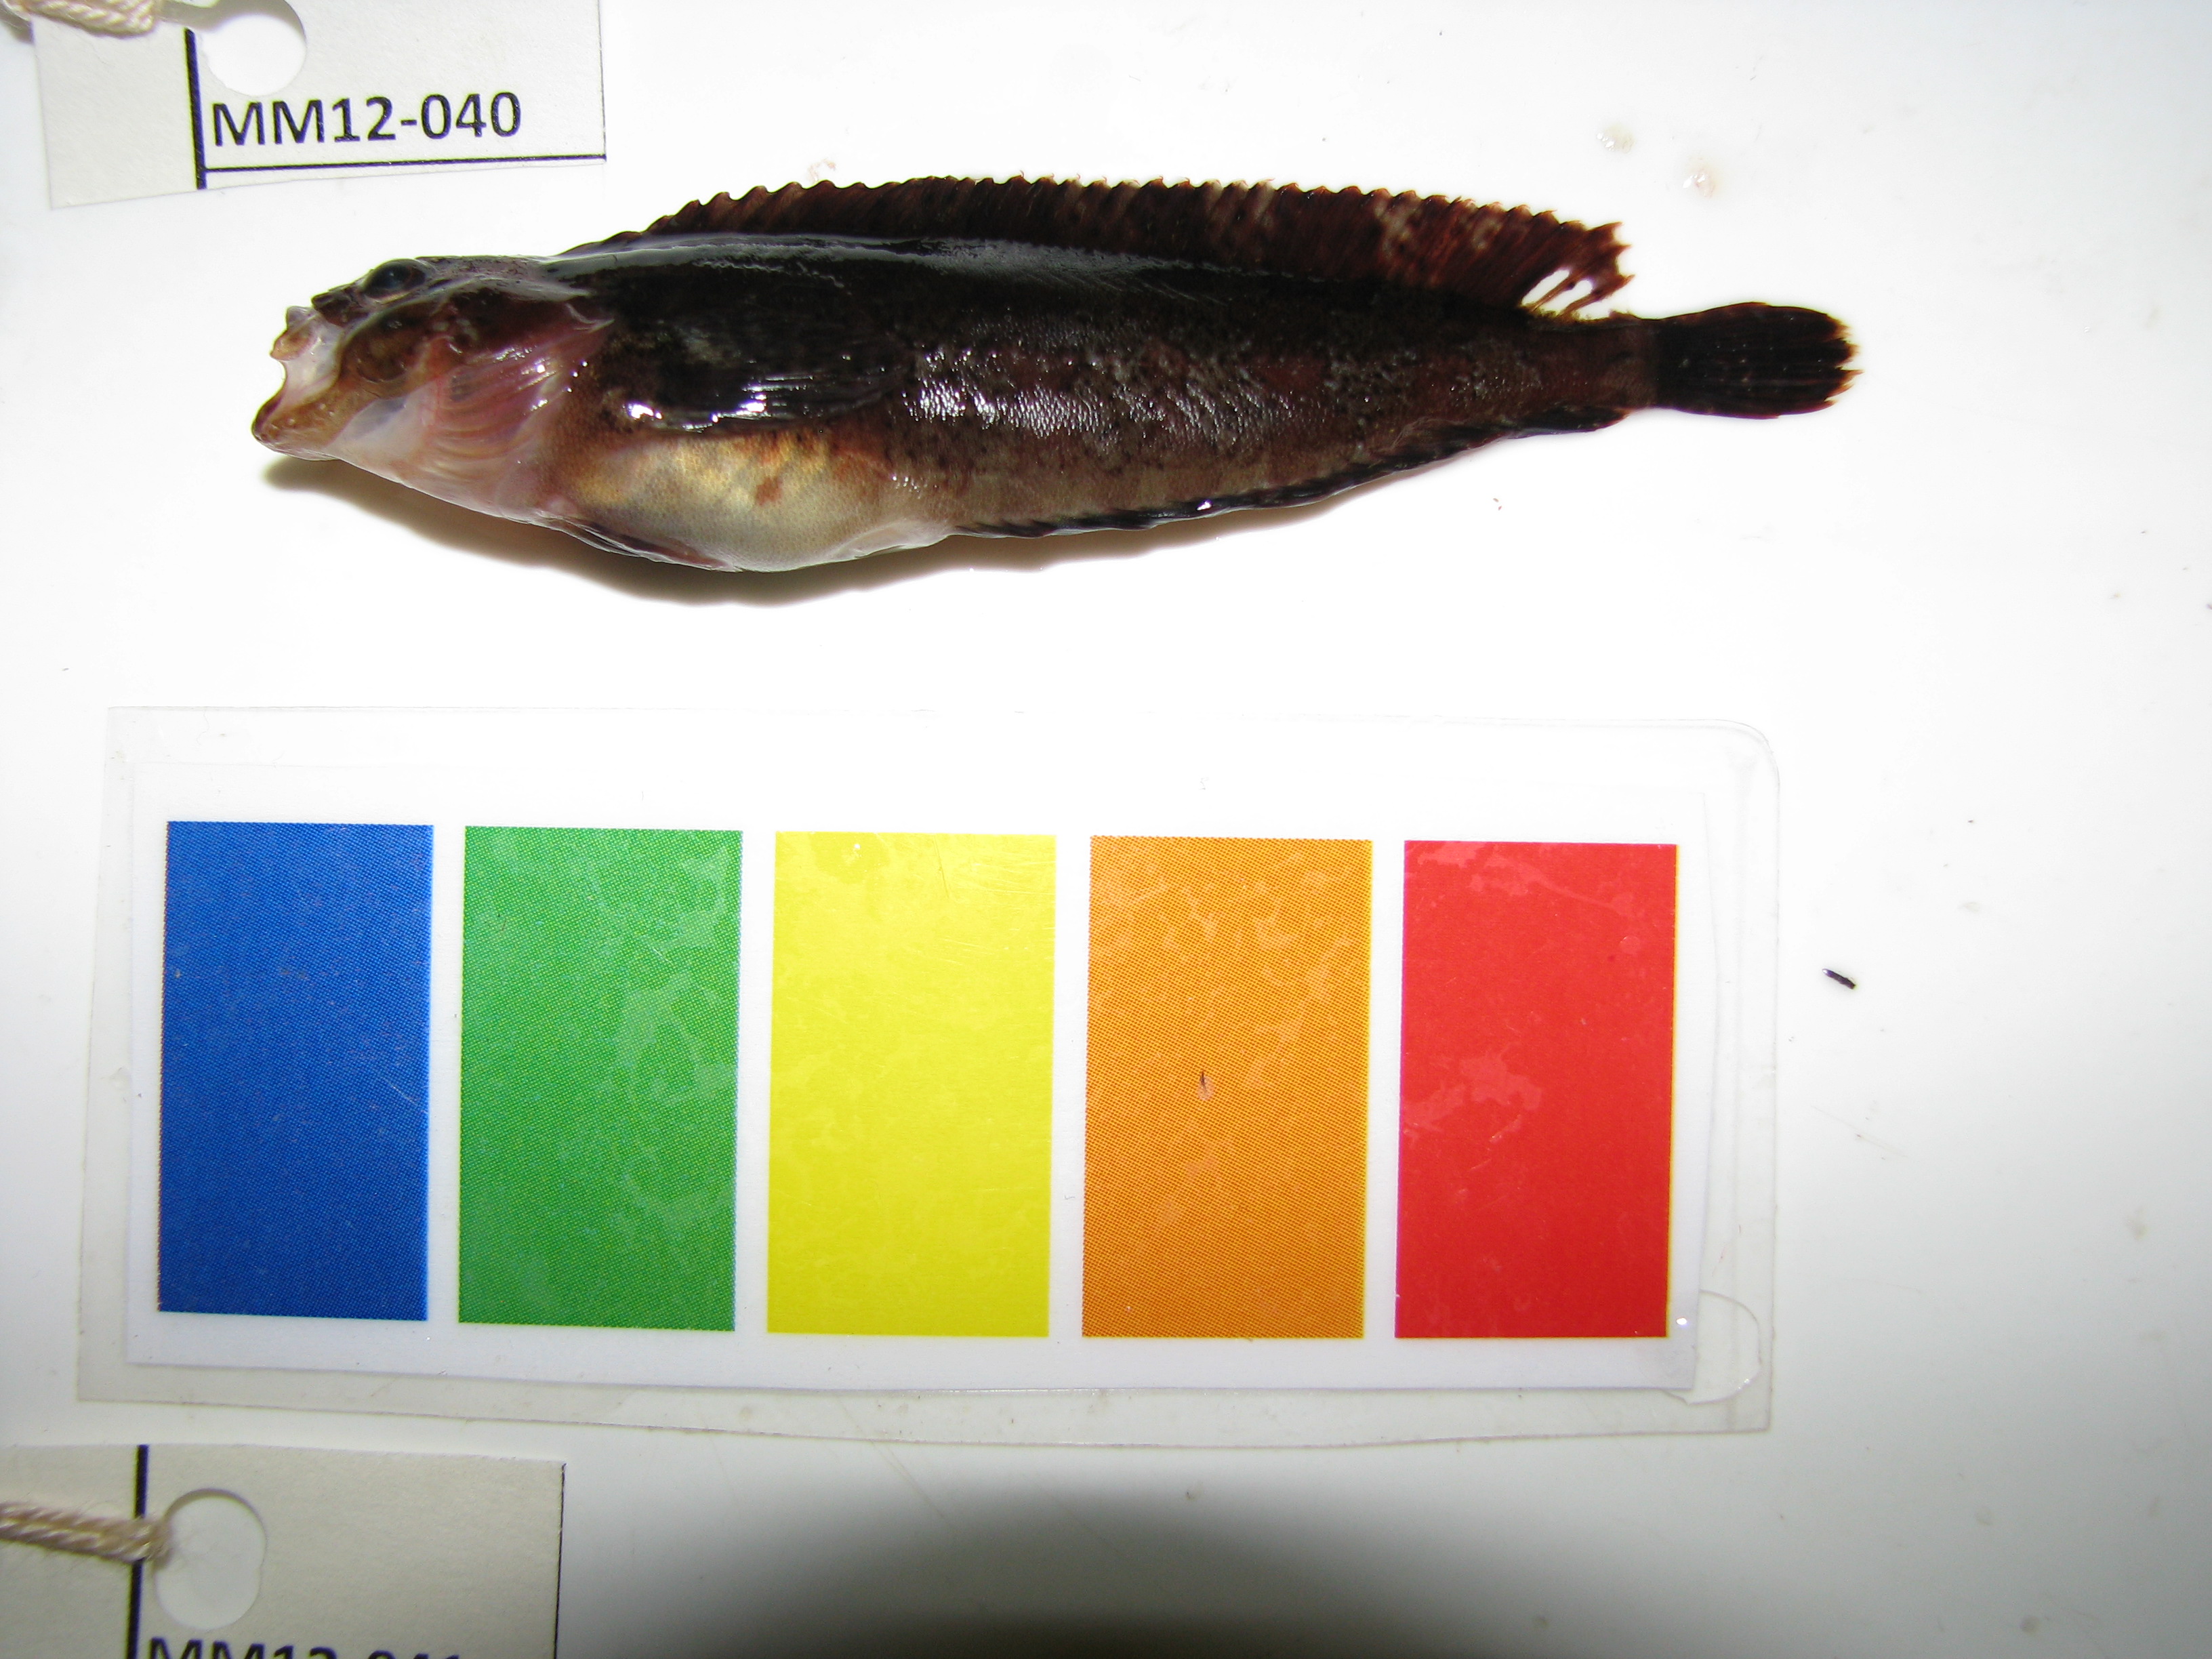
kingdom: Animalia
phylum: Chordata
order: Perciformes
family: Clinidae
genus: Clinus
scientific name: Clinus robustus
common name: Robust klipfish
